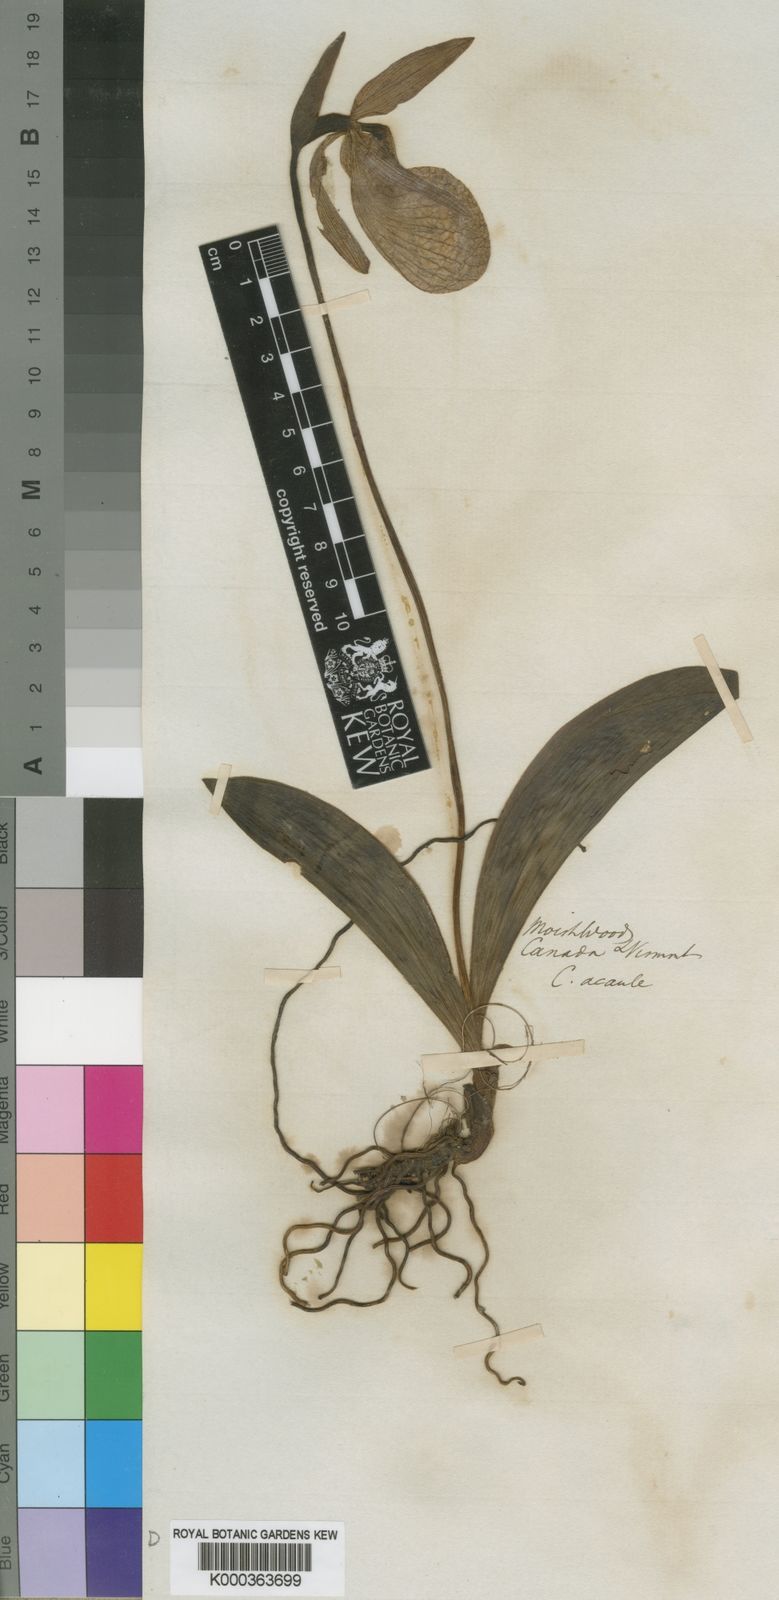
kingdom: Plantae
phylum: Tracheophyta
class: Liliopsida
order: Asparagales
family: Orchidaceae
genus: Cypripedium
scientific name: Cypripedium acaule
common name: Pink lady's-slipper
